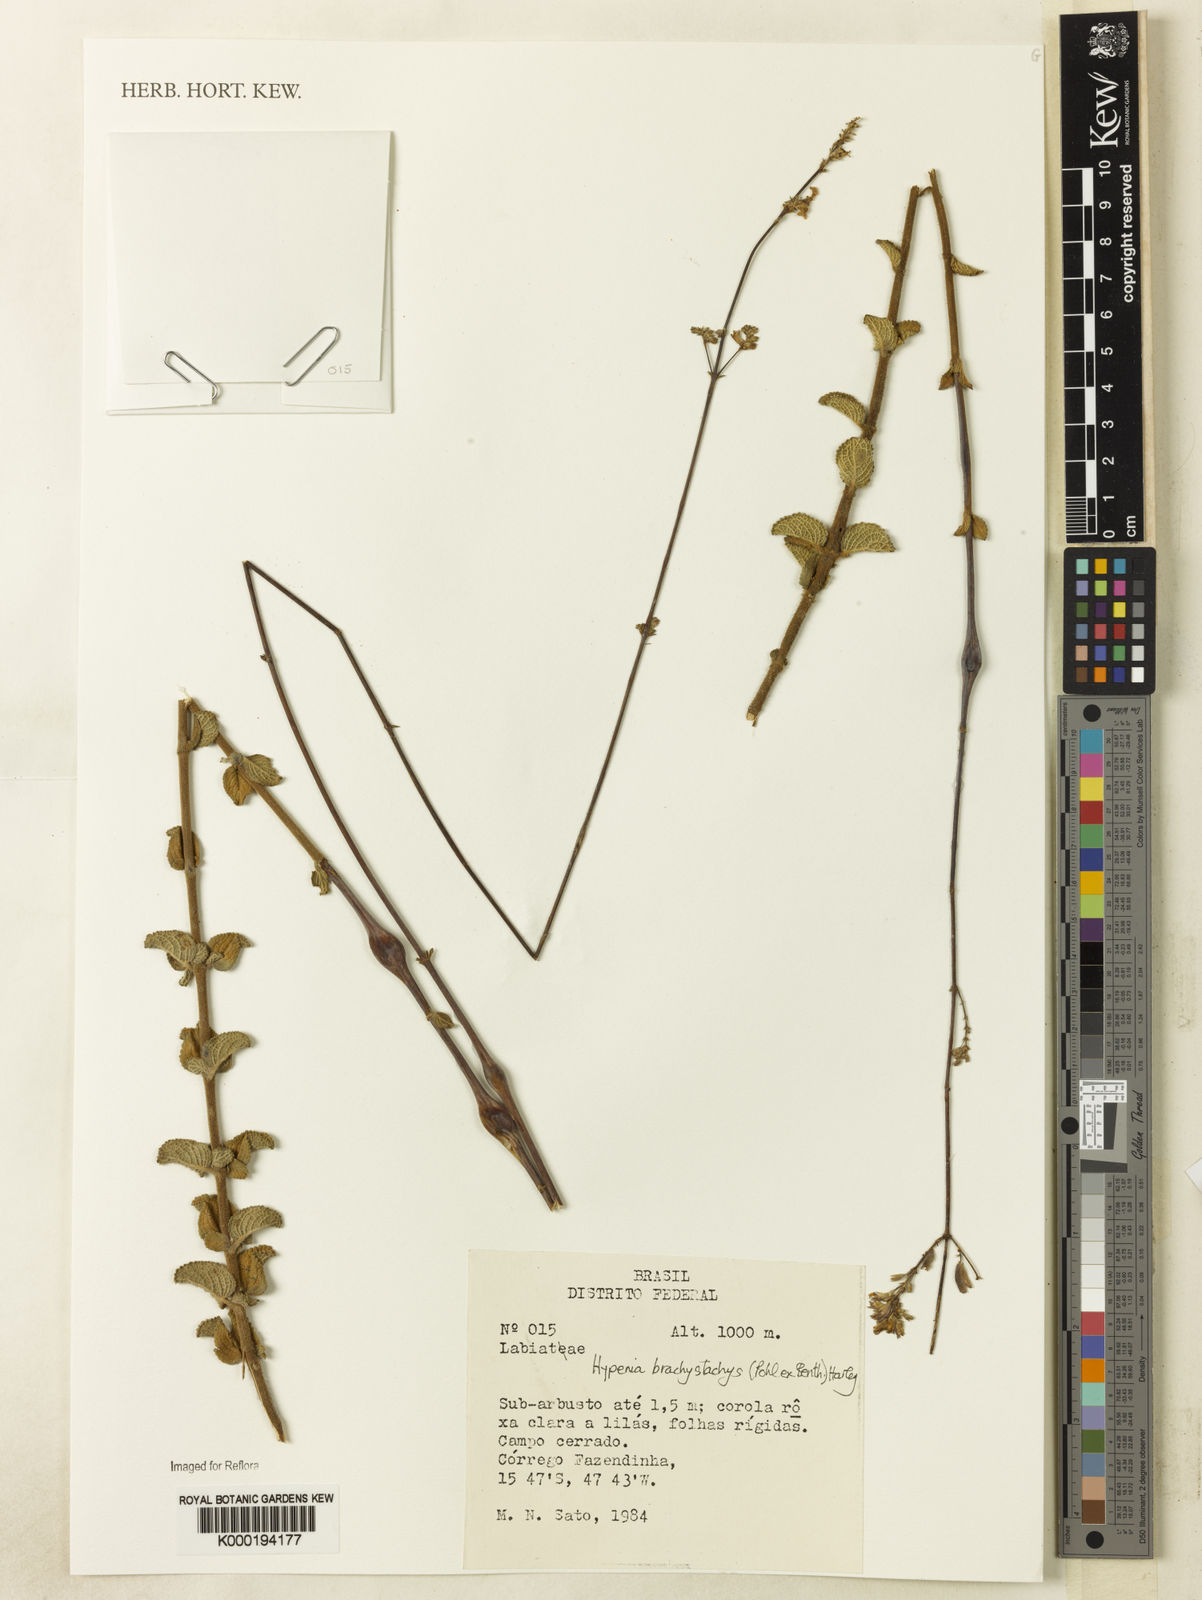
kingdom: Plantae
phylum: Tracheophyta
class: Magnoliopsida
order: Lamiales
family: Lamiaceae
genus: Hypenia
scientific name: Hypenia brachystachys
